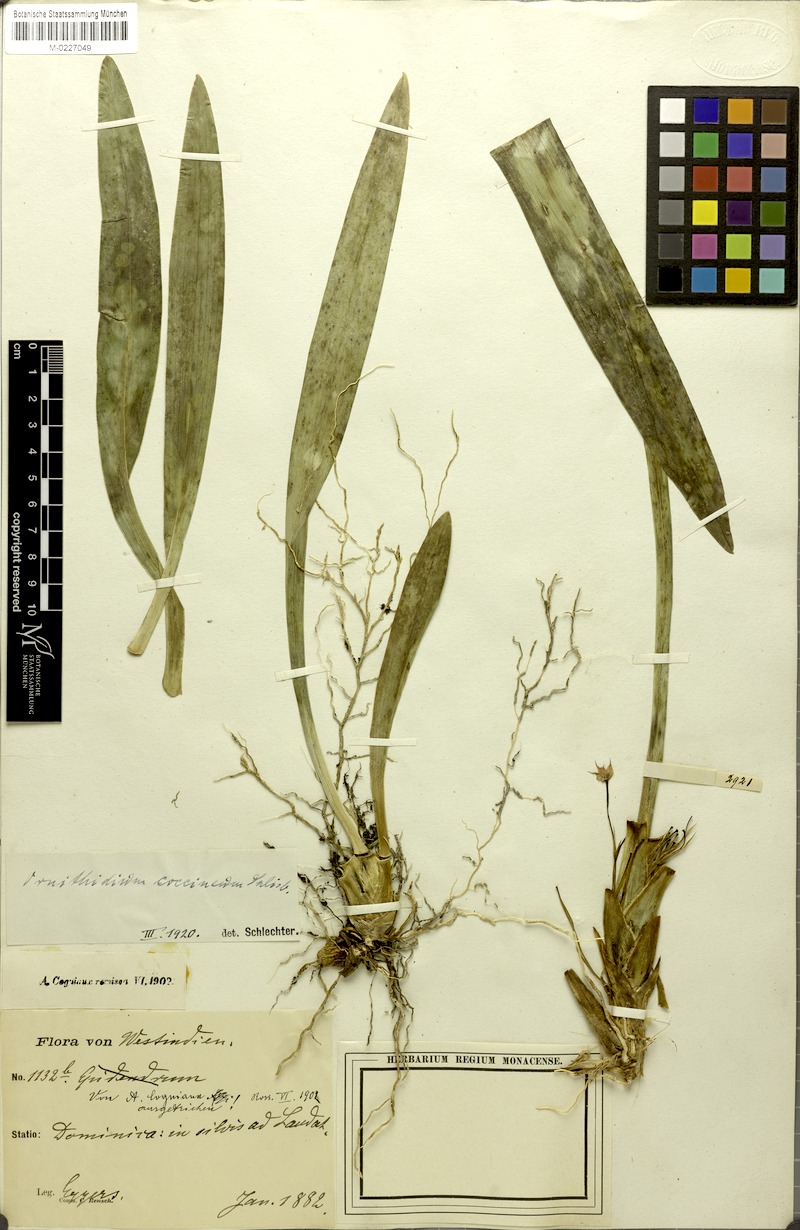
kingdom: Plantae
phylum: Tracheophyta
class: Liliopsida
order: Asparagales
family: Orchidaceae
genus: Maxillaria
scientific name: Maxillaria coccinea
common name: Scarlet flame orchid
